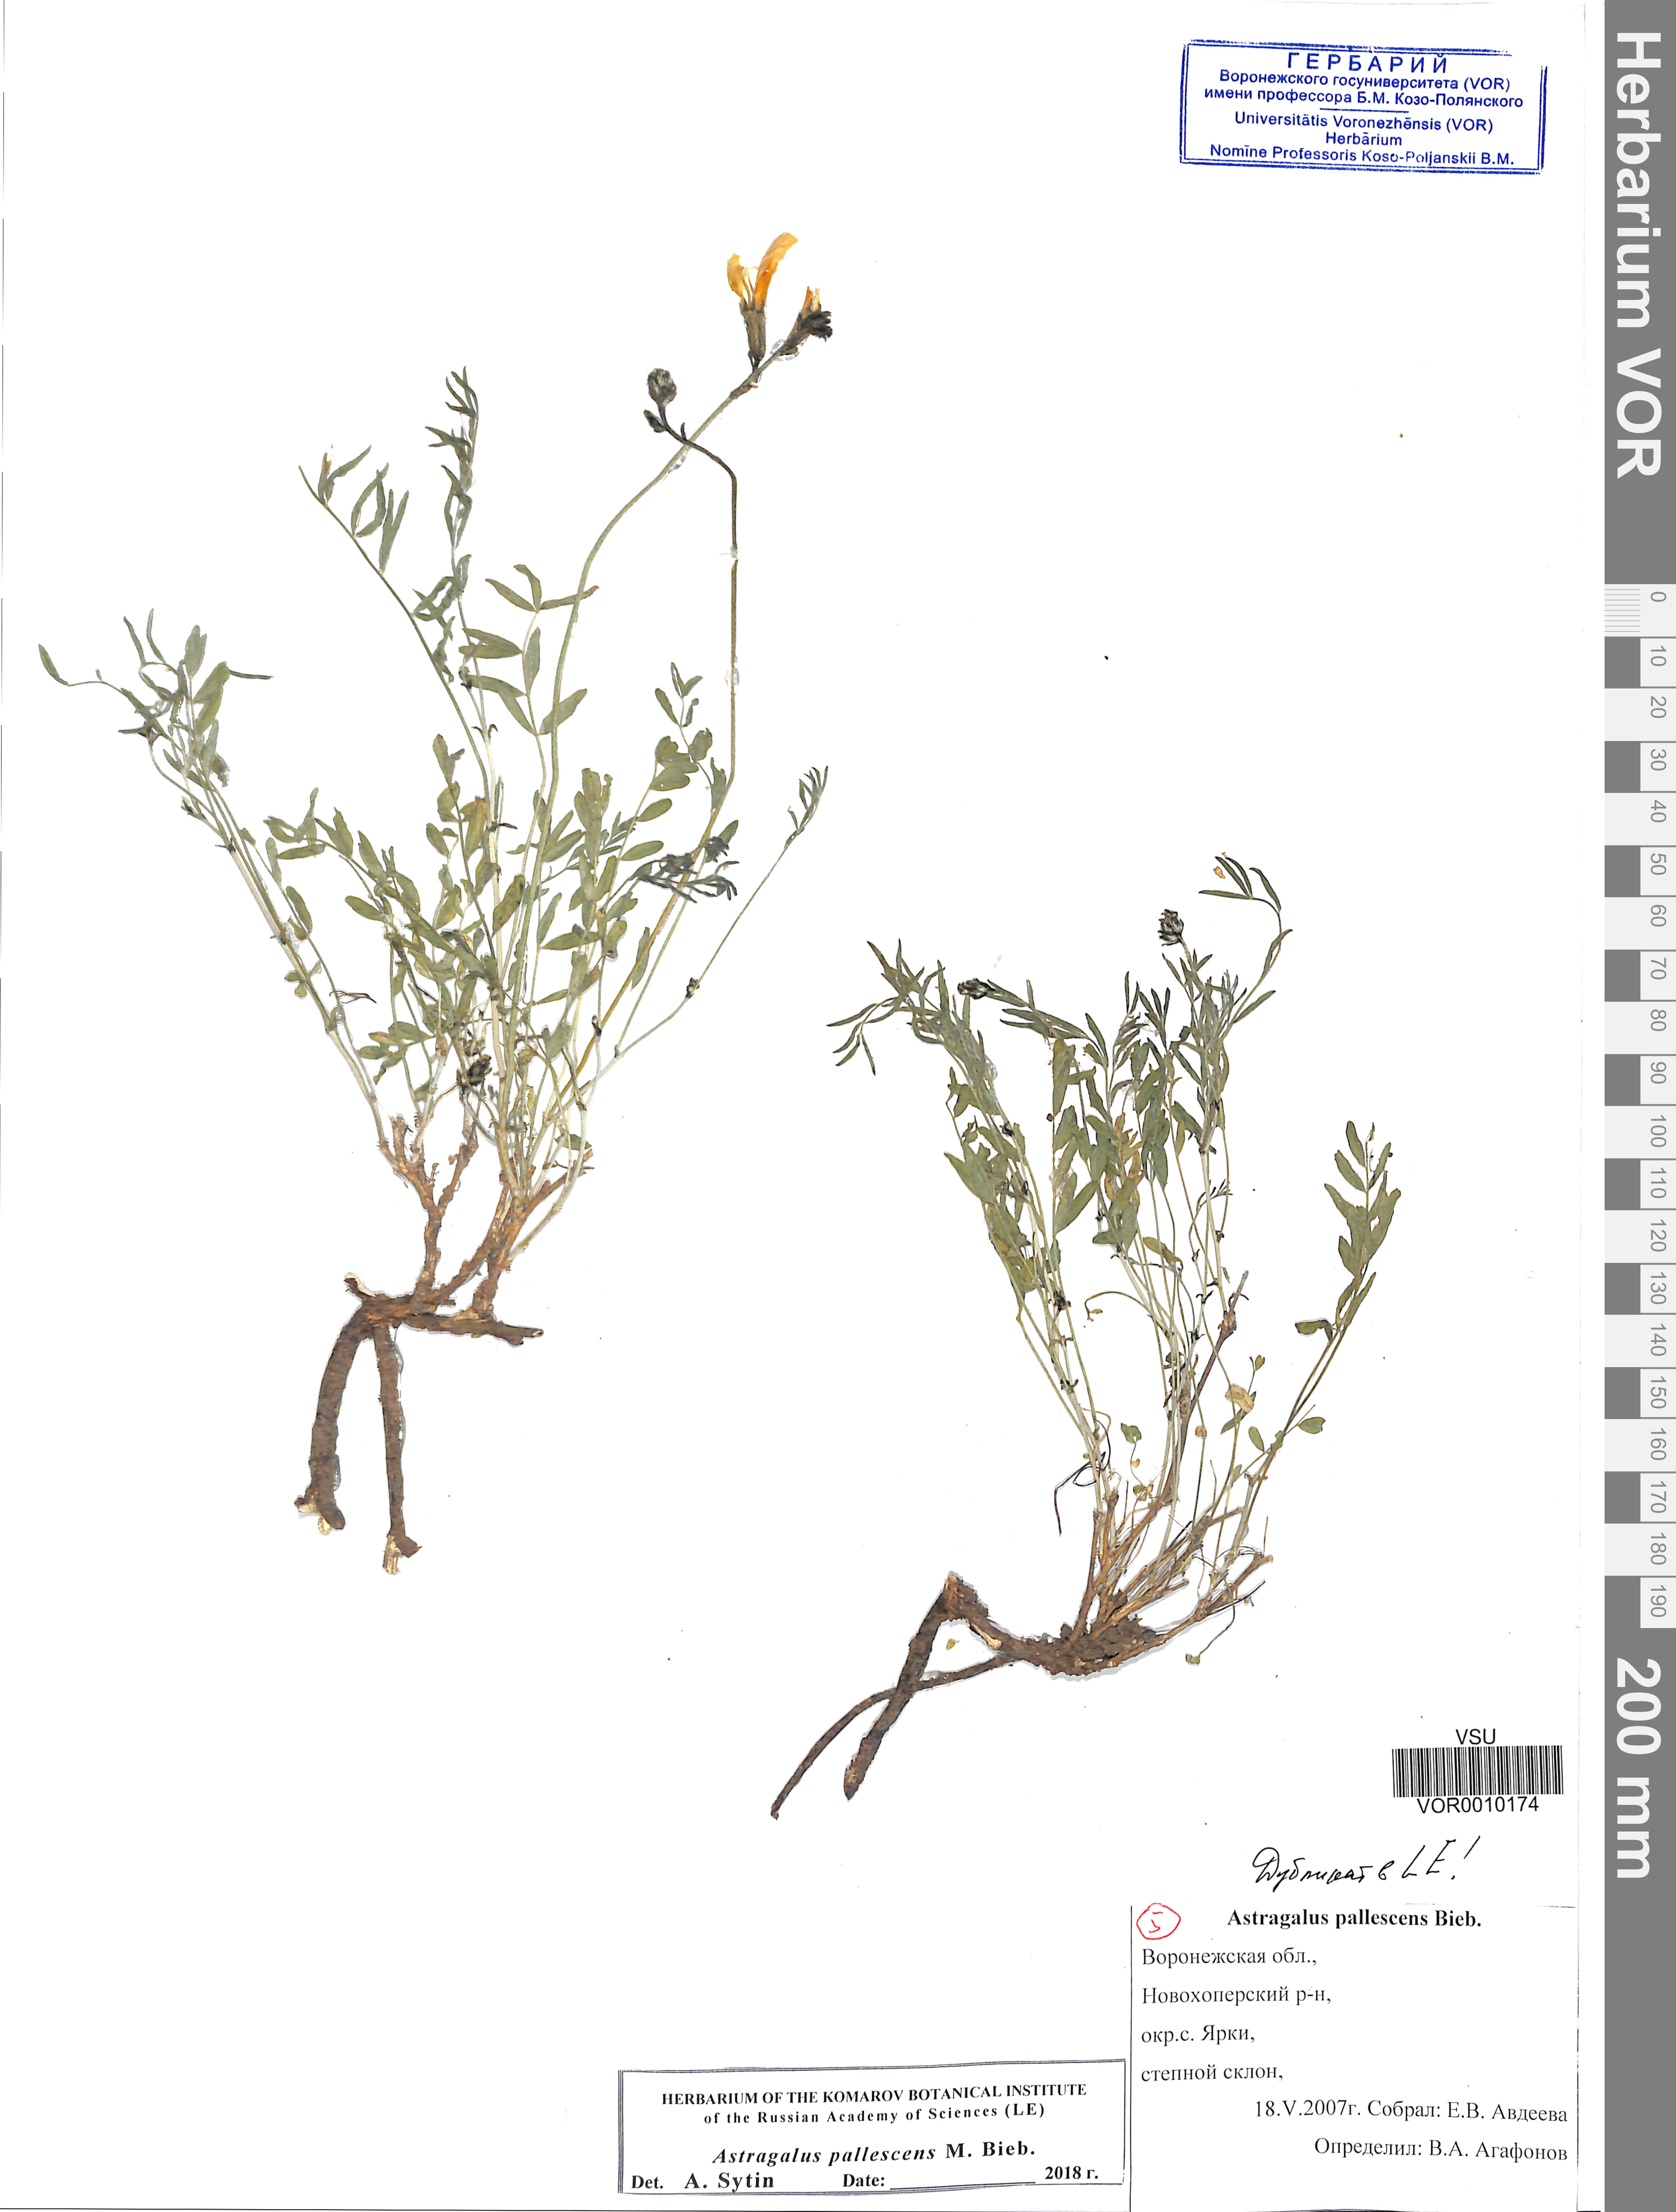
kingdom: Plantae
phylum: Tracheophyta
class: Magnoliopsida
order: Fabales
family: Fabaceae
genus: Astragalus
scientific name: Astragalus pallescens
